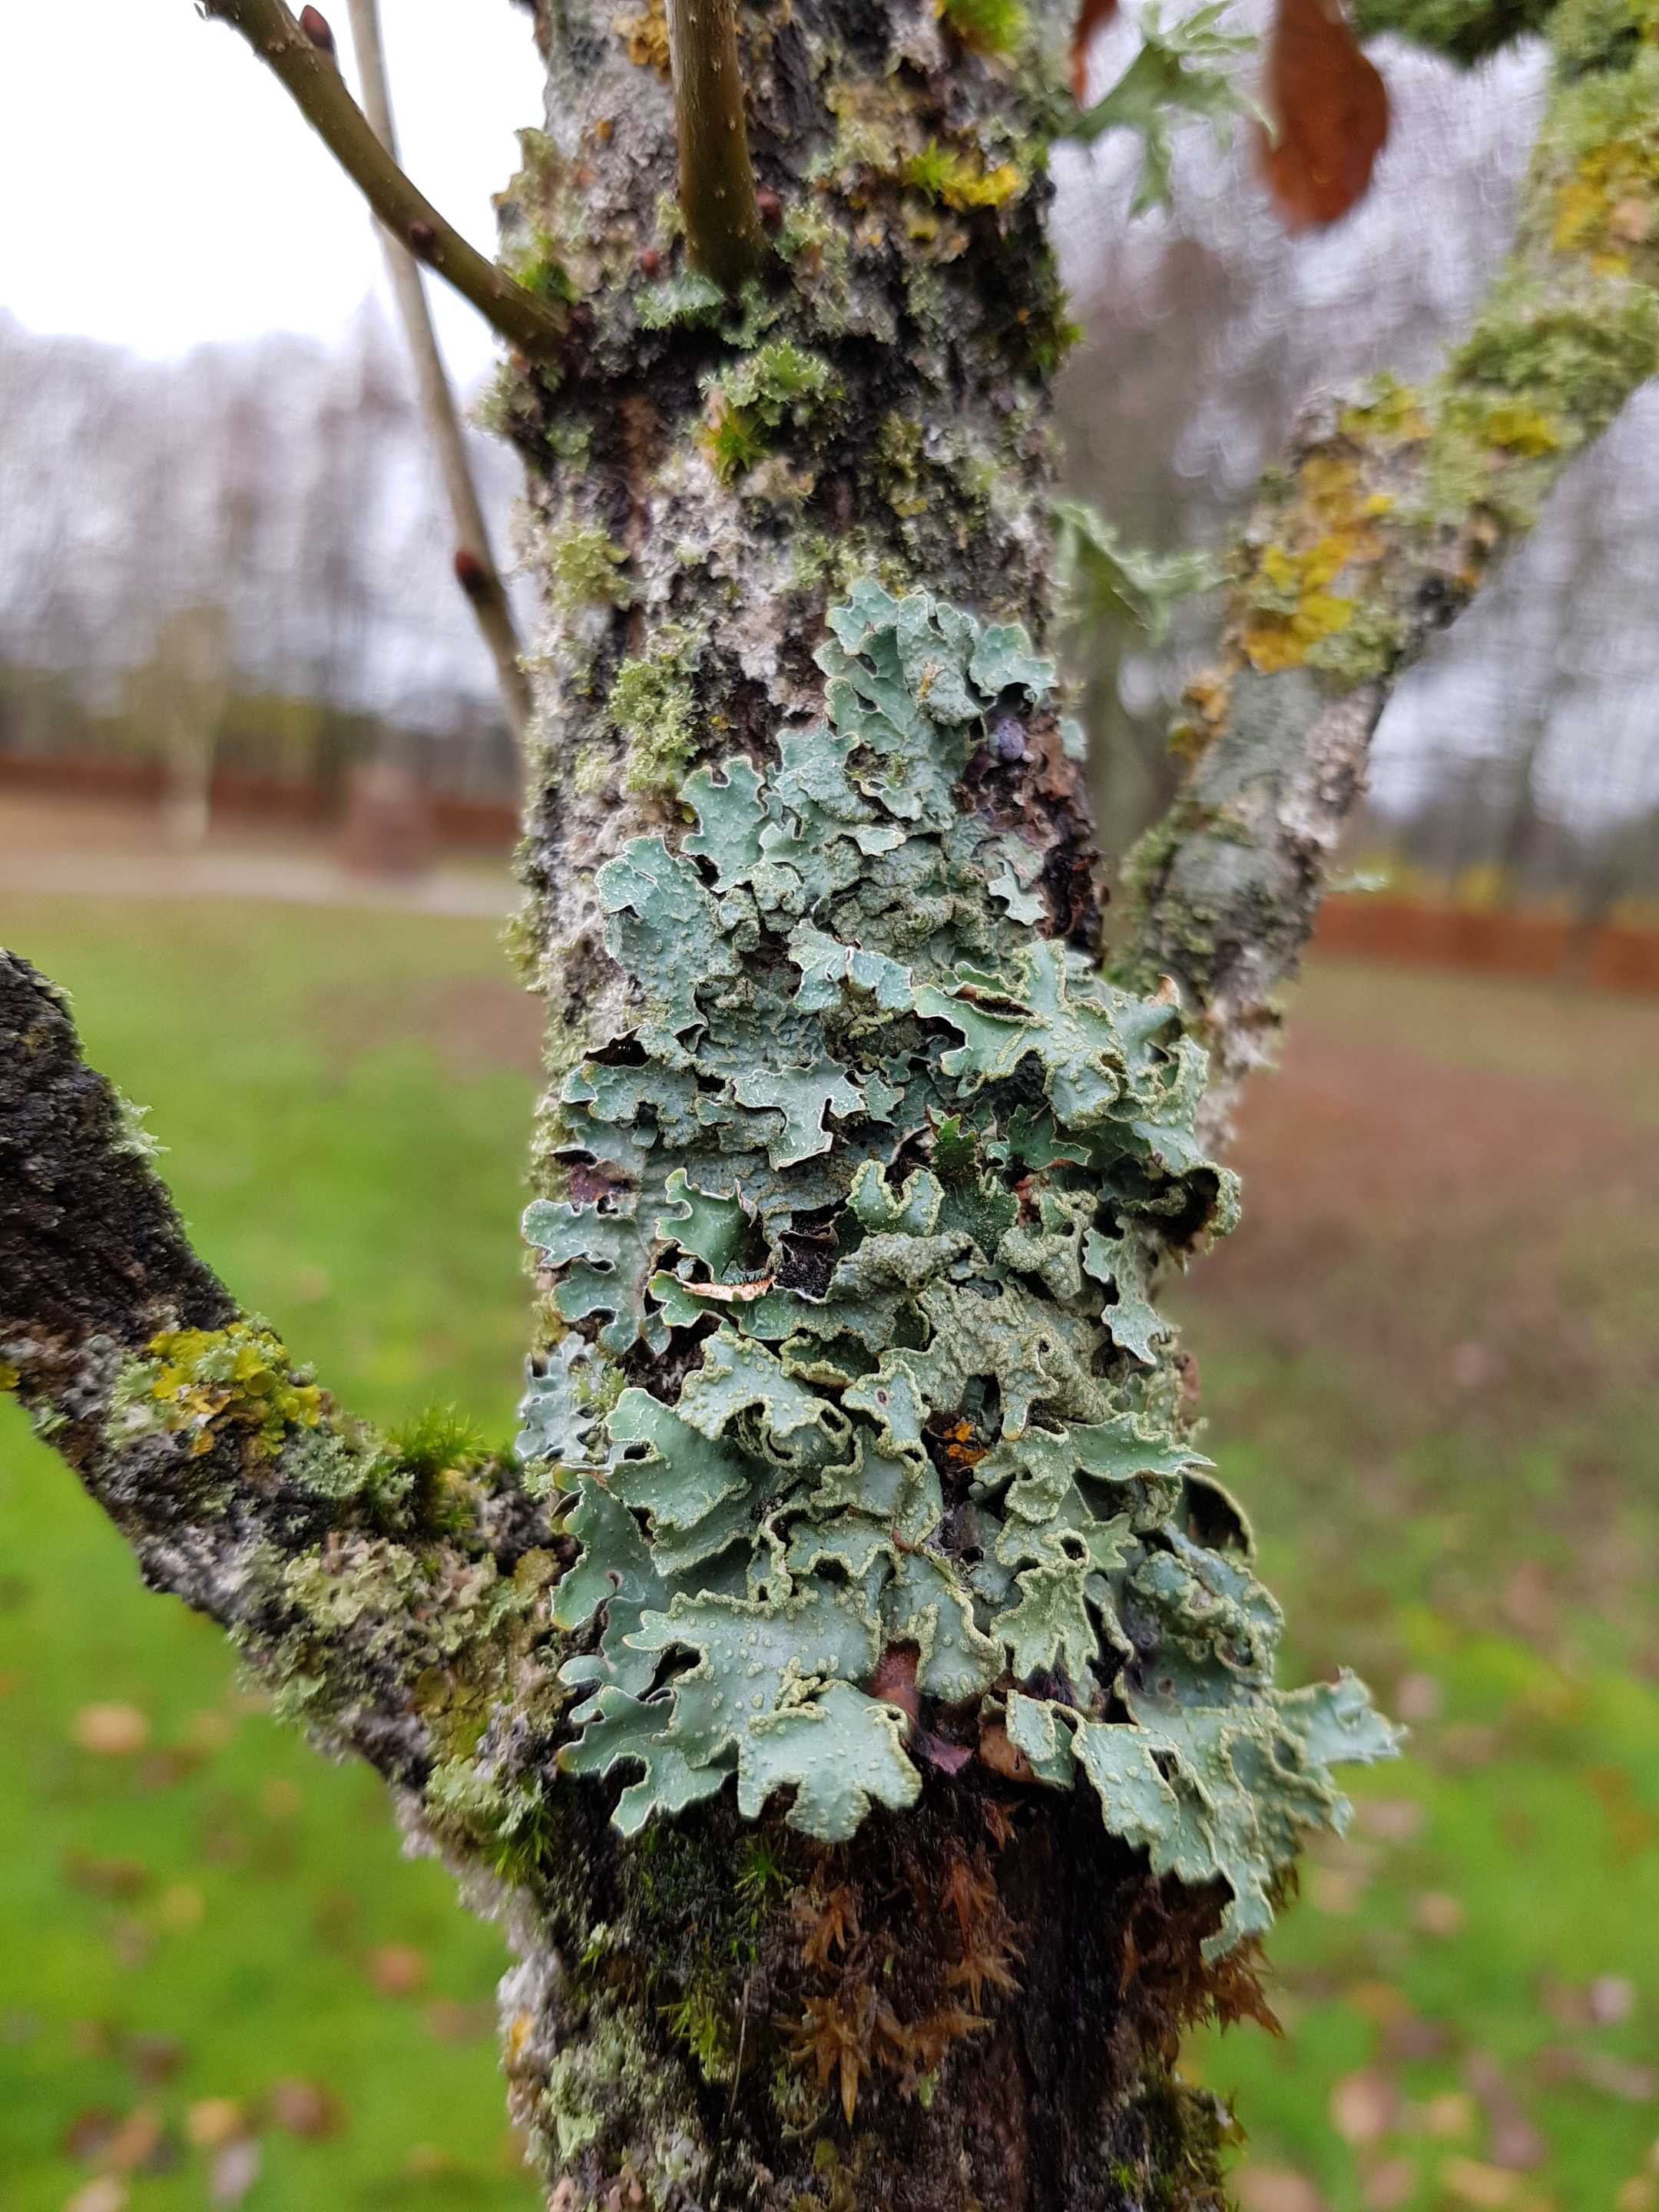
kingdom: Fungi
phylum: Ascomycota
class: Lecanoromycetes
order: Lecanorales
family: Parmeliaceae
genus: Parmelia
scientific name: Parmelia sulcata
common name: rynket skållav
